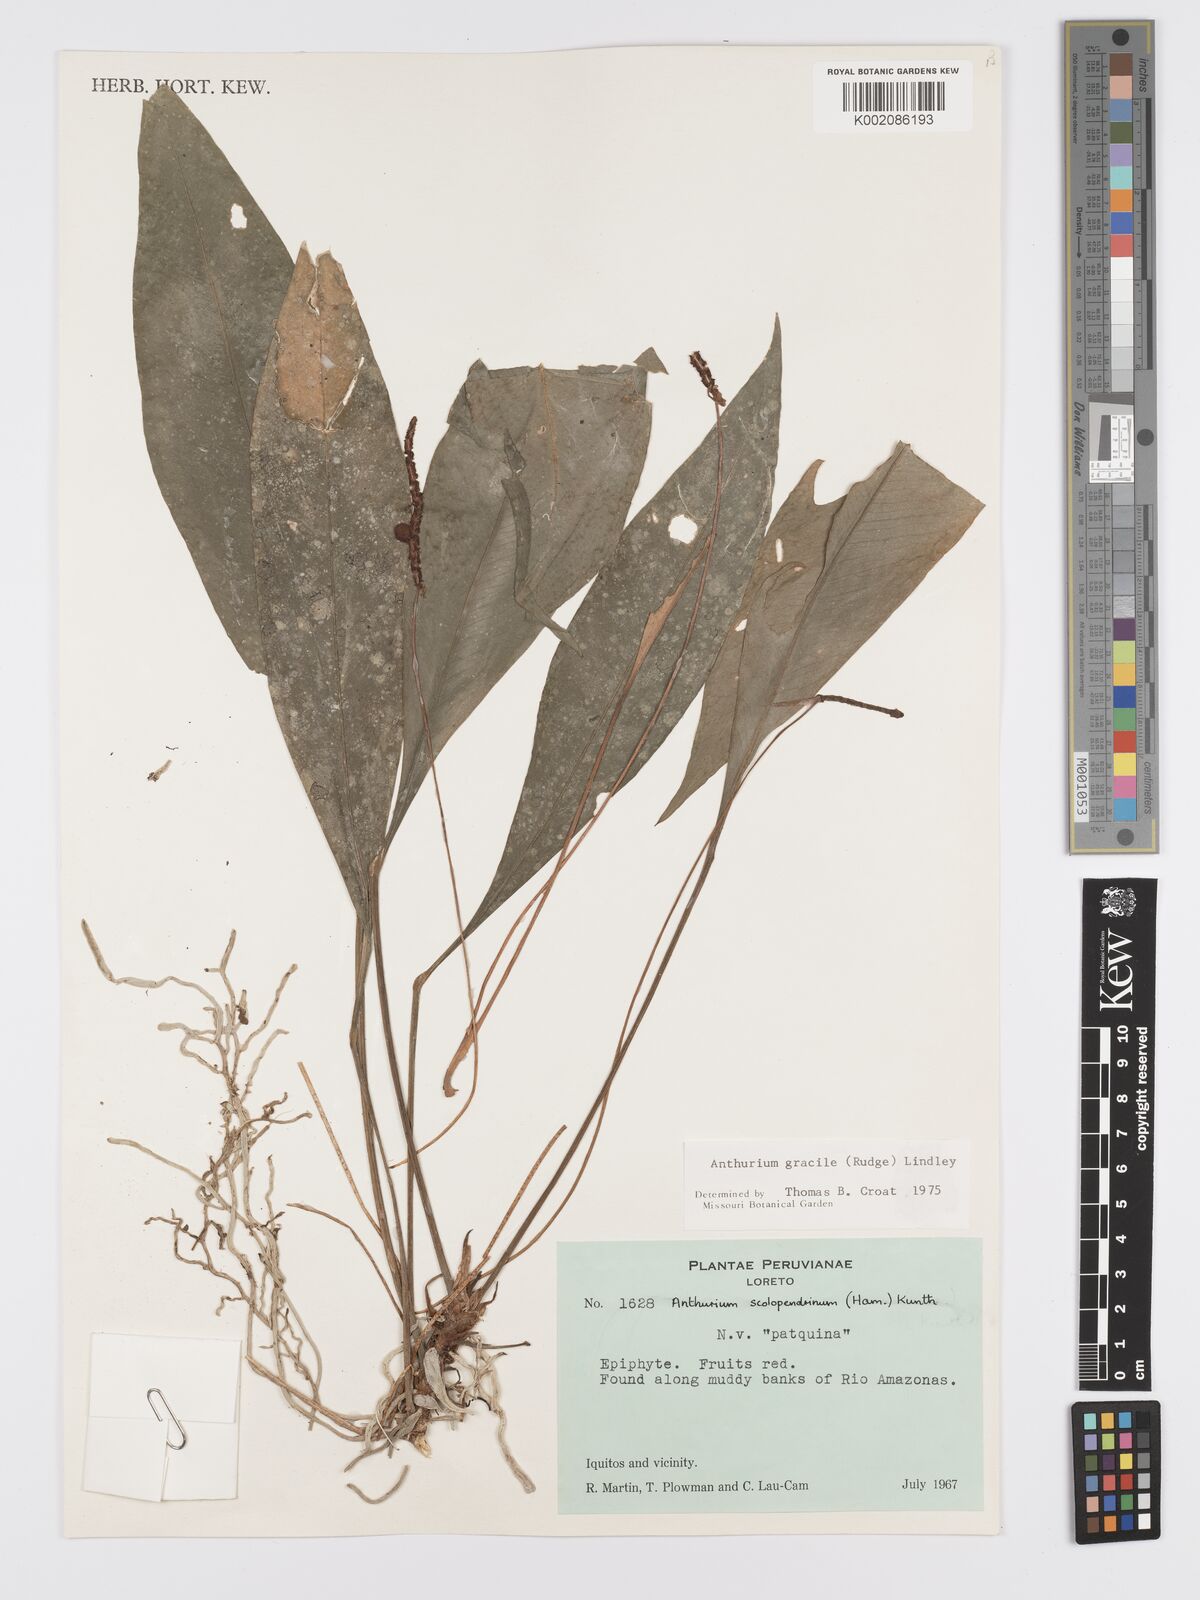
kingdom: Plantae
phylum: Tracheophyta
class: Liliopsida
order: Alismatales
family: Araceae
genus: Anthurium
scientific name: Anthurium gracile
